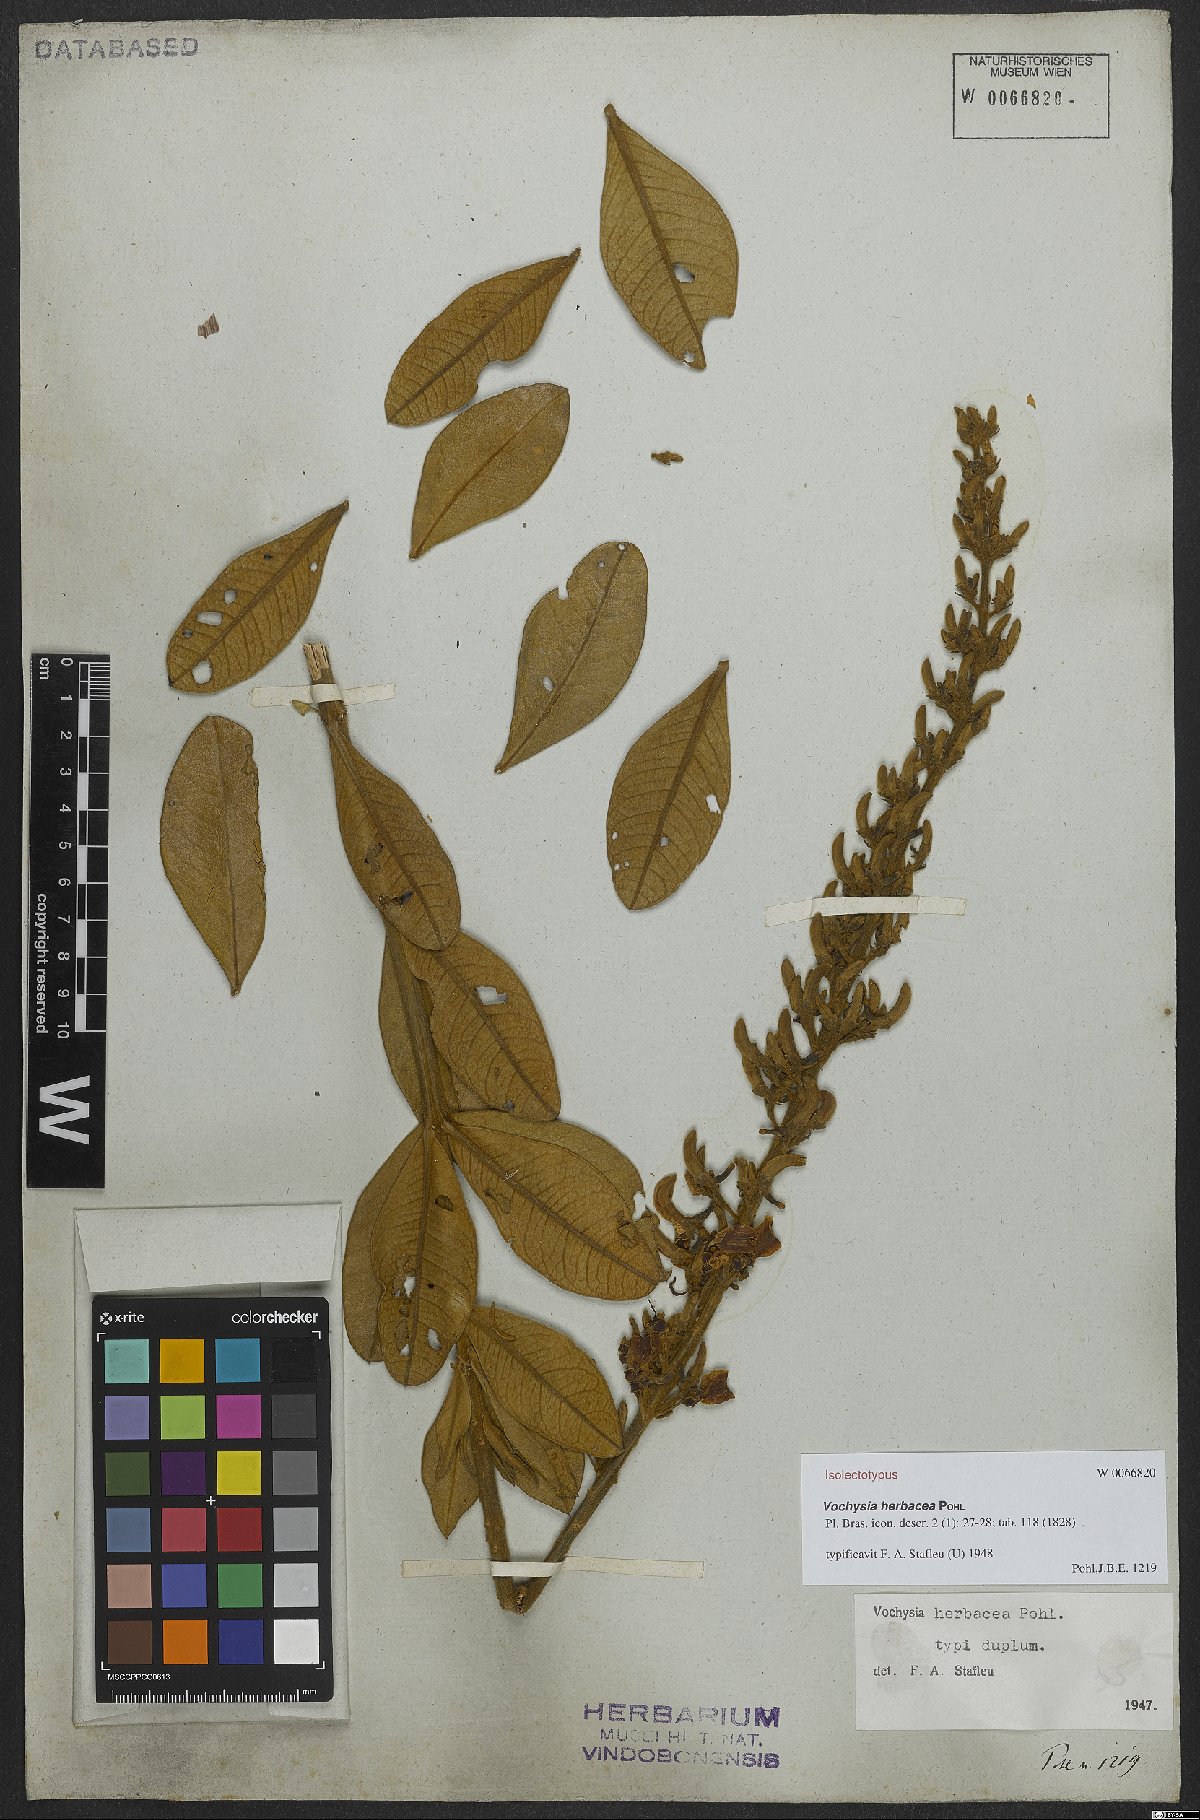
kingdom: Plantae
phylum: Tracheophyta
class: Magnoliopsida
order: Myrtales
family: Vochysiaceae
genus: Vochysia
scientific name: Vochysia herbacea
